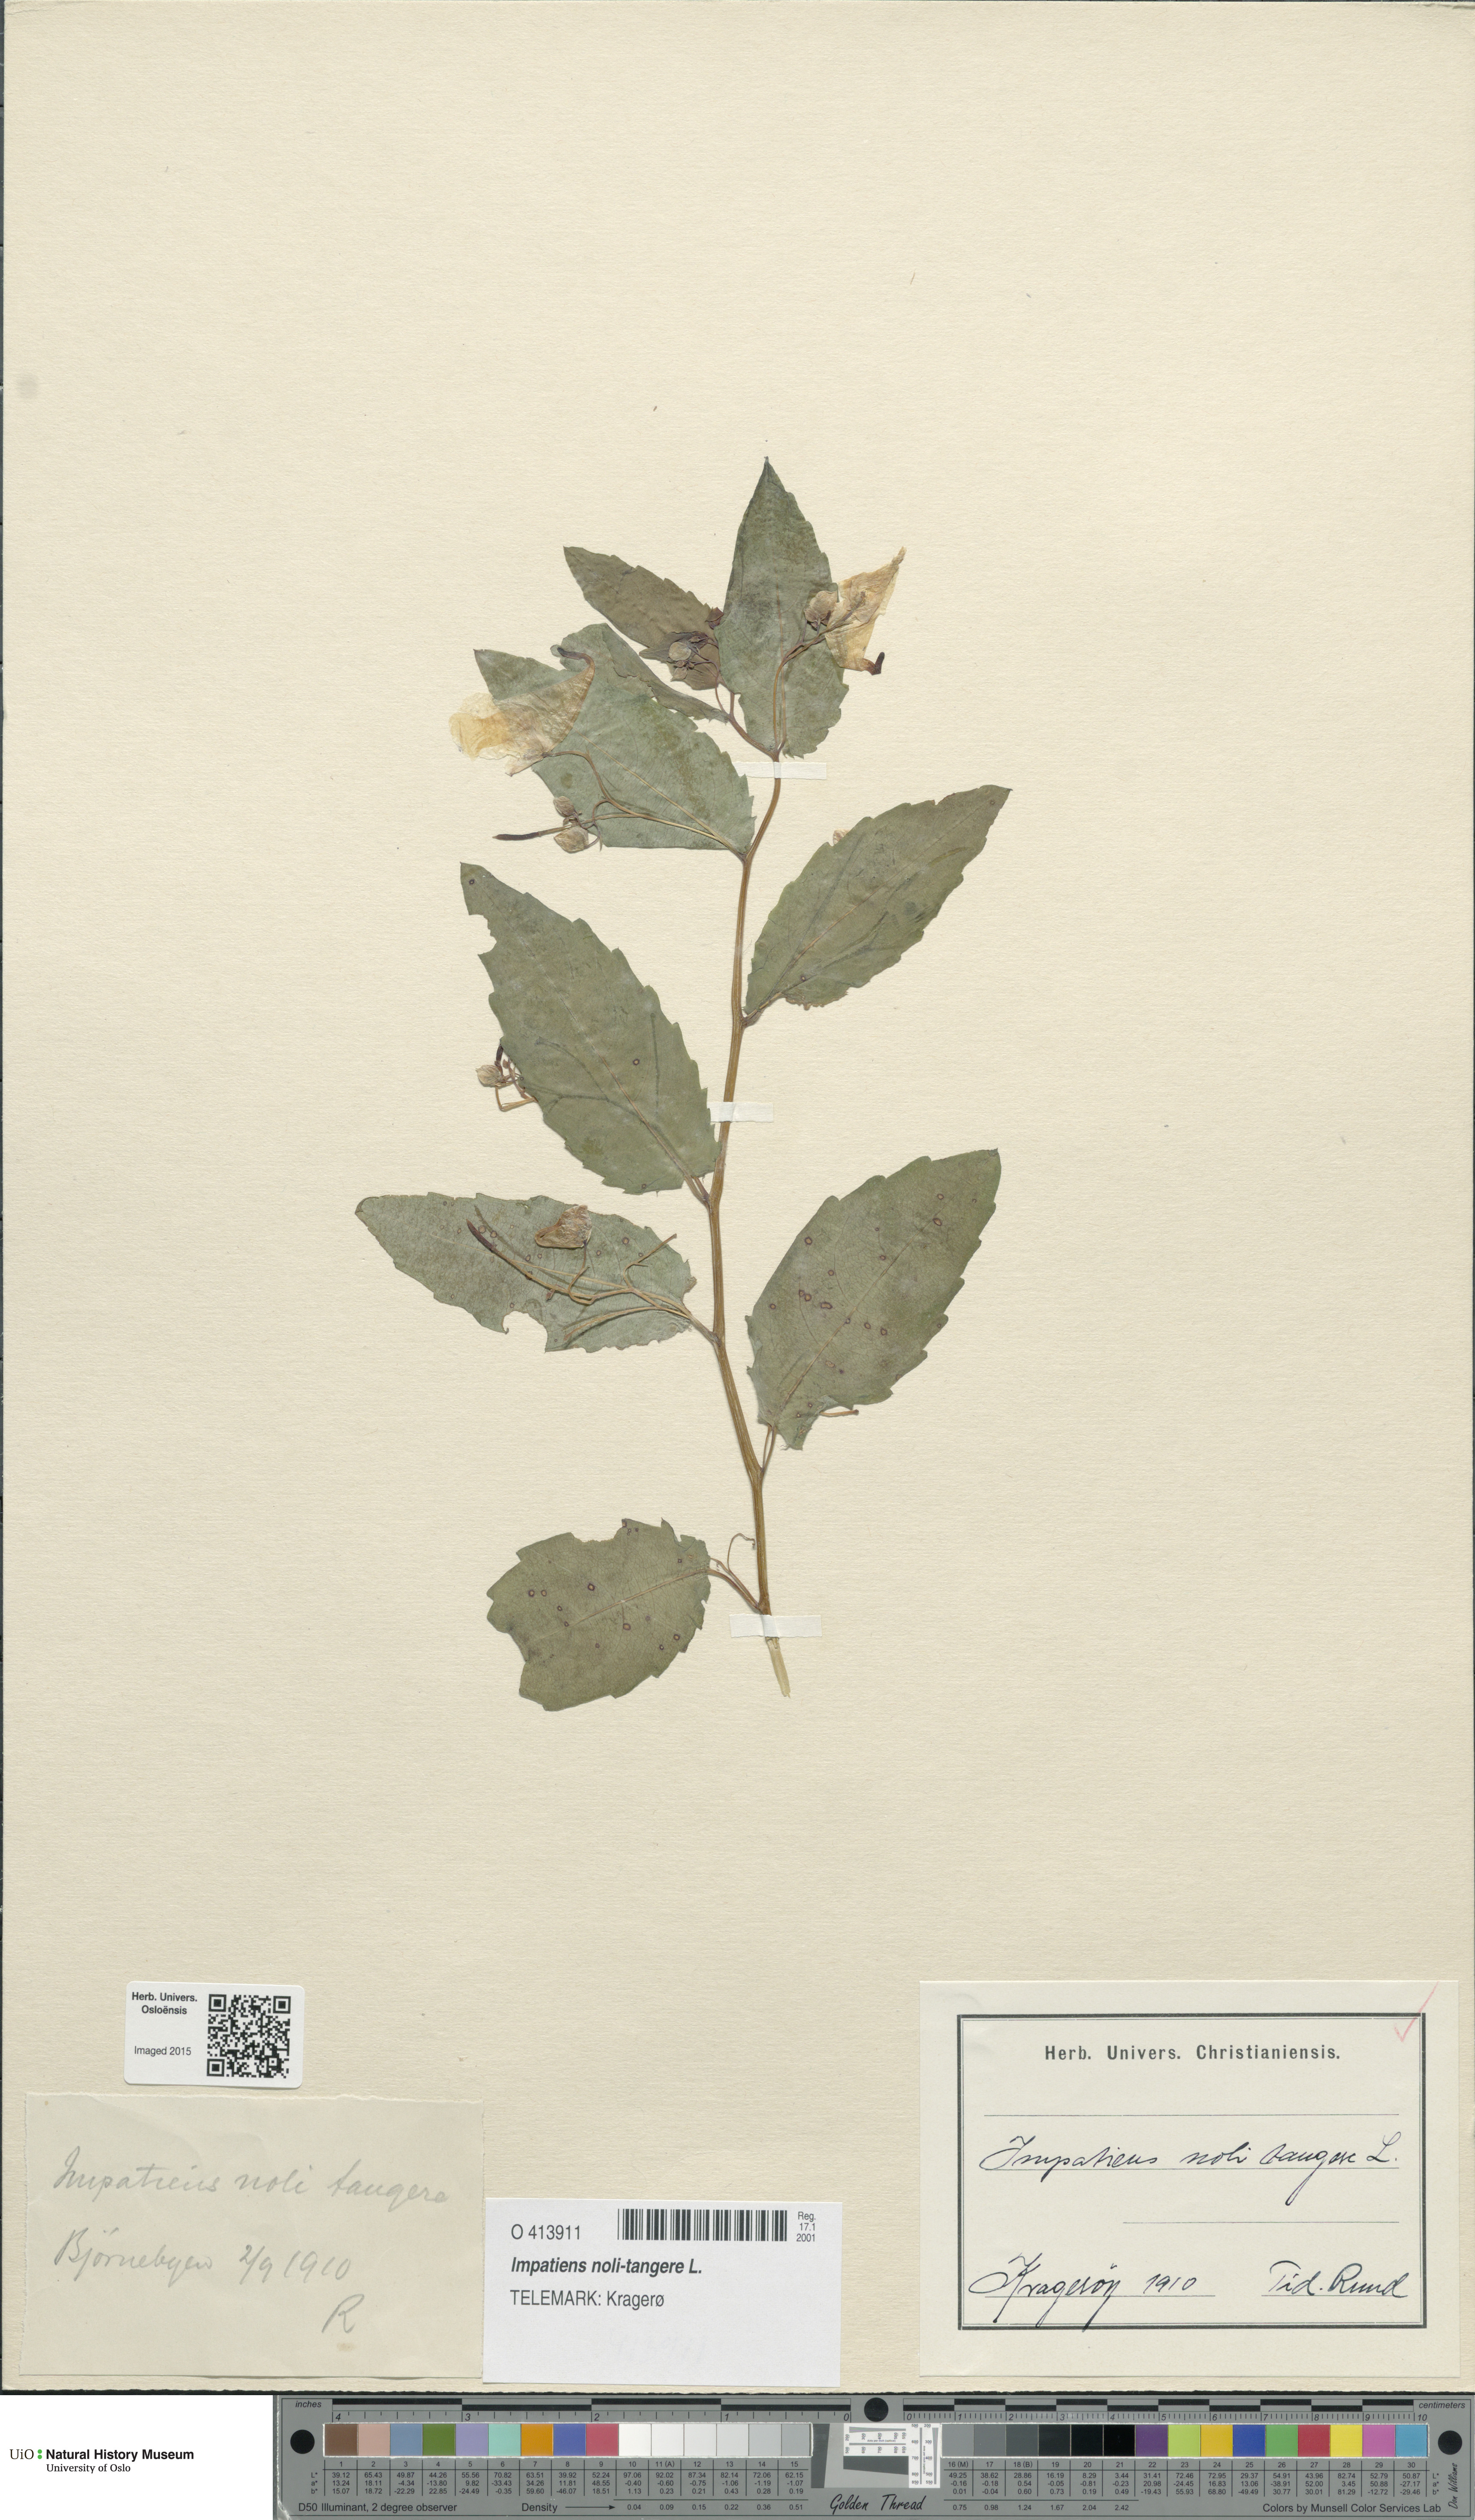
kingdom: Plantae
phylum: Tracheophyta
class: Magnoliopsida
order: Ericales
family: Balsaminaceae
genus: Impatiens
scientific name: Impatiens noli-tangere
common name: Touch-me-not balsam
